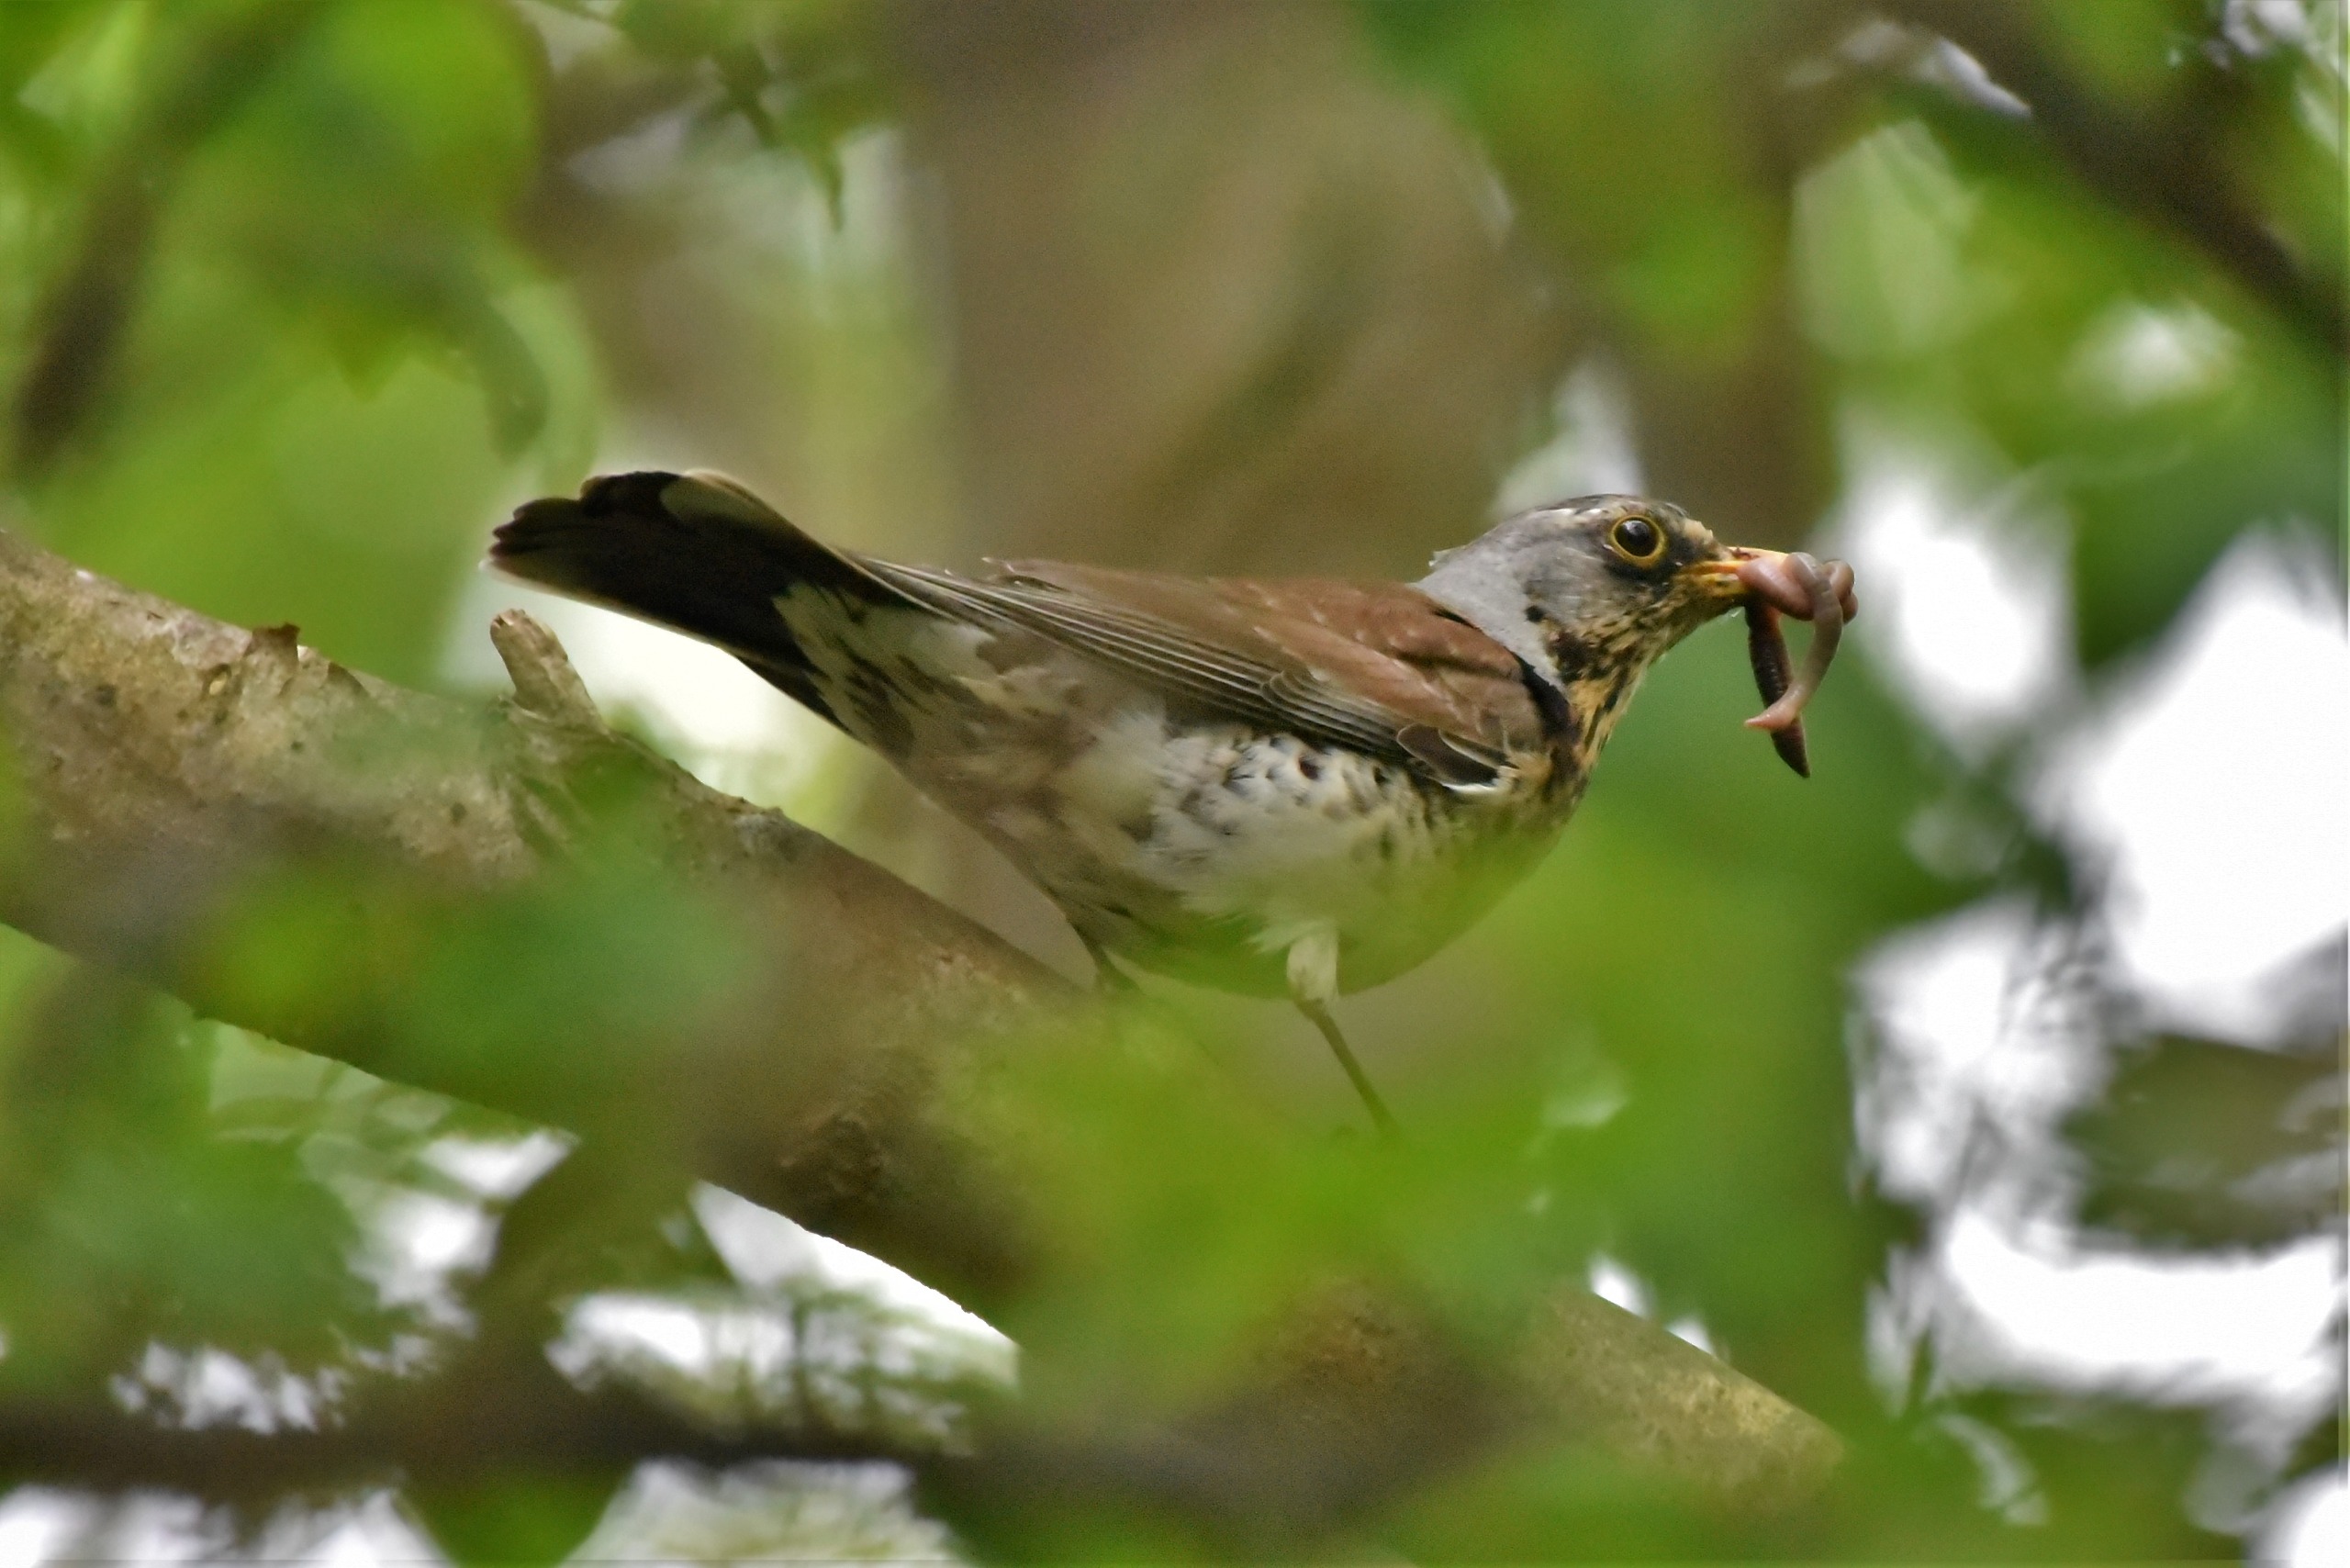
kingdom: Animalia
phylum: Chordata
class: Aves
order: Passeriformes
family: Turdidae
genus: Turdus
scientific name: Turdus pilaris
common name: Sjagger
